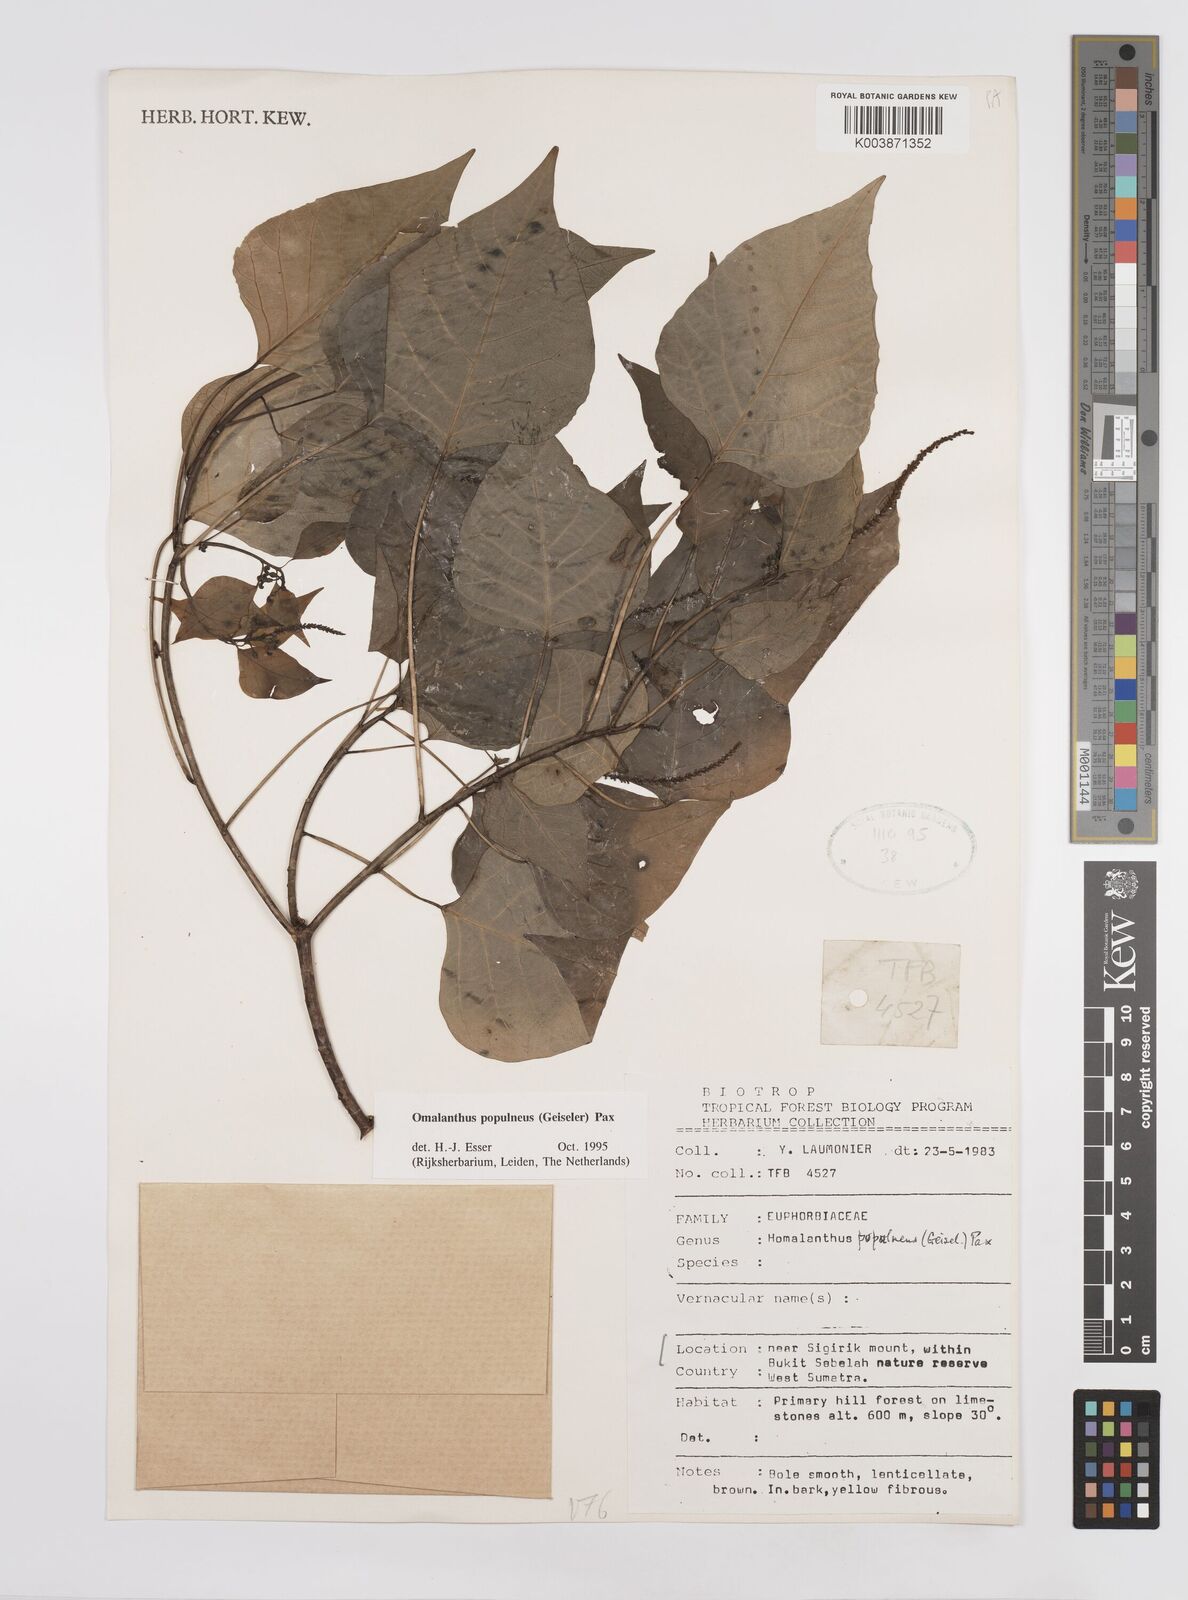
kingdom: Plantae
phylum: Tracheophyta
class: Magnoliopsida
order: Malpighiales
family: Euphorbiaceae
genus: Homalanthus
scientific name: Homalanthus populneus
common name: Spurge
